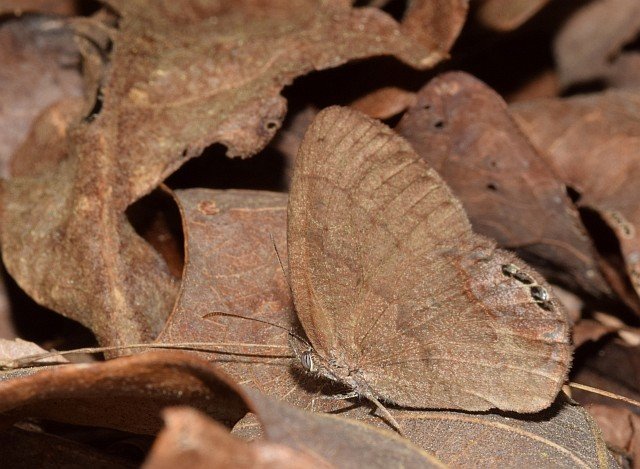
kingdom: Animalia
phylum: Arthropoda
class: Insecta
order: Lepidoptera
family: Nymphalidae
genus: Euptychia
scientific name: Euptychia cornelius
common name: Gemmed Satyr
